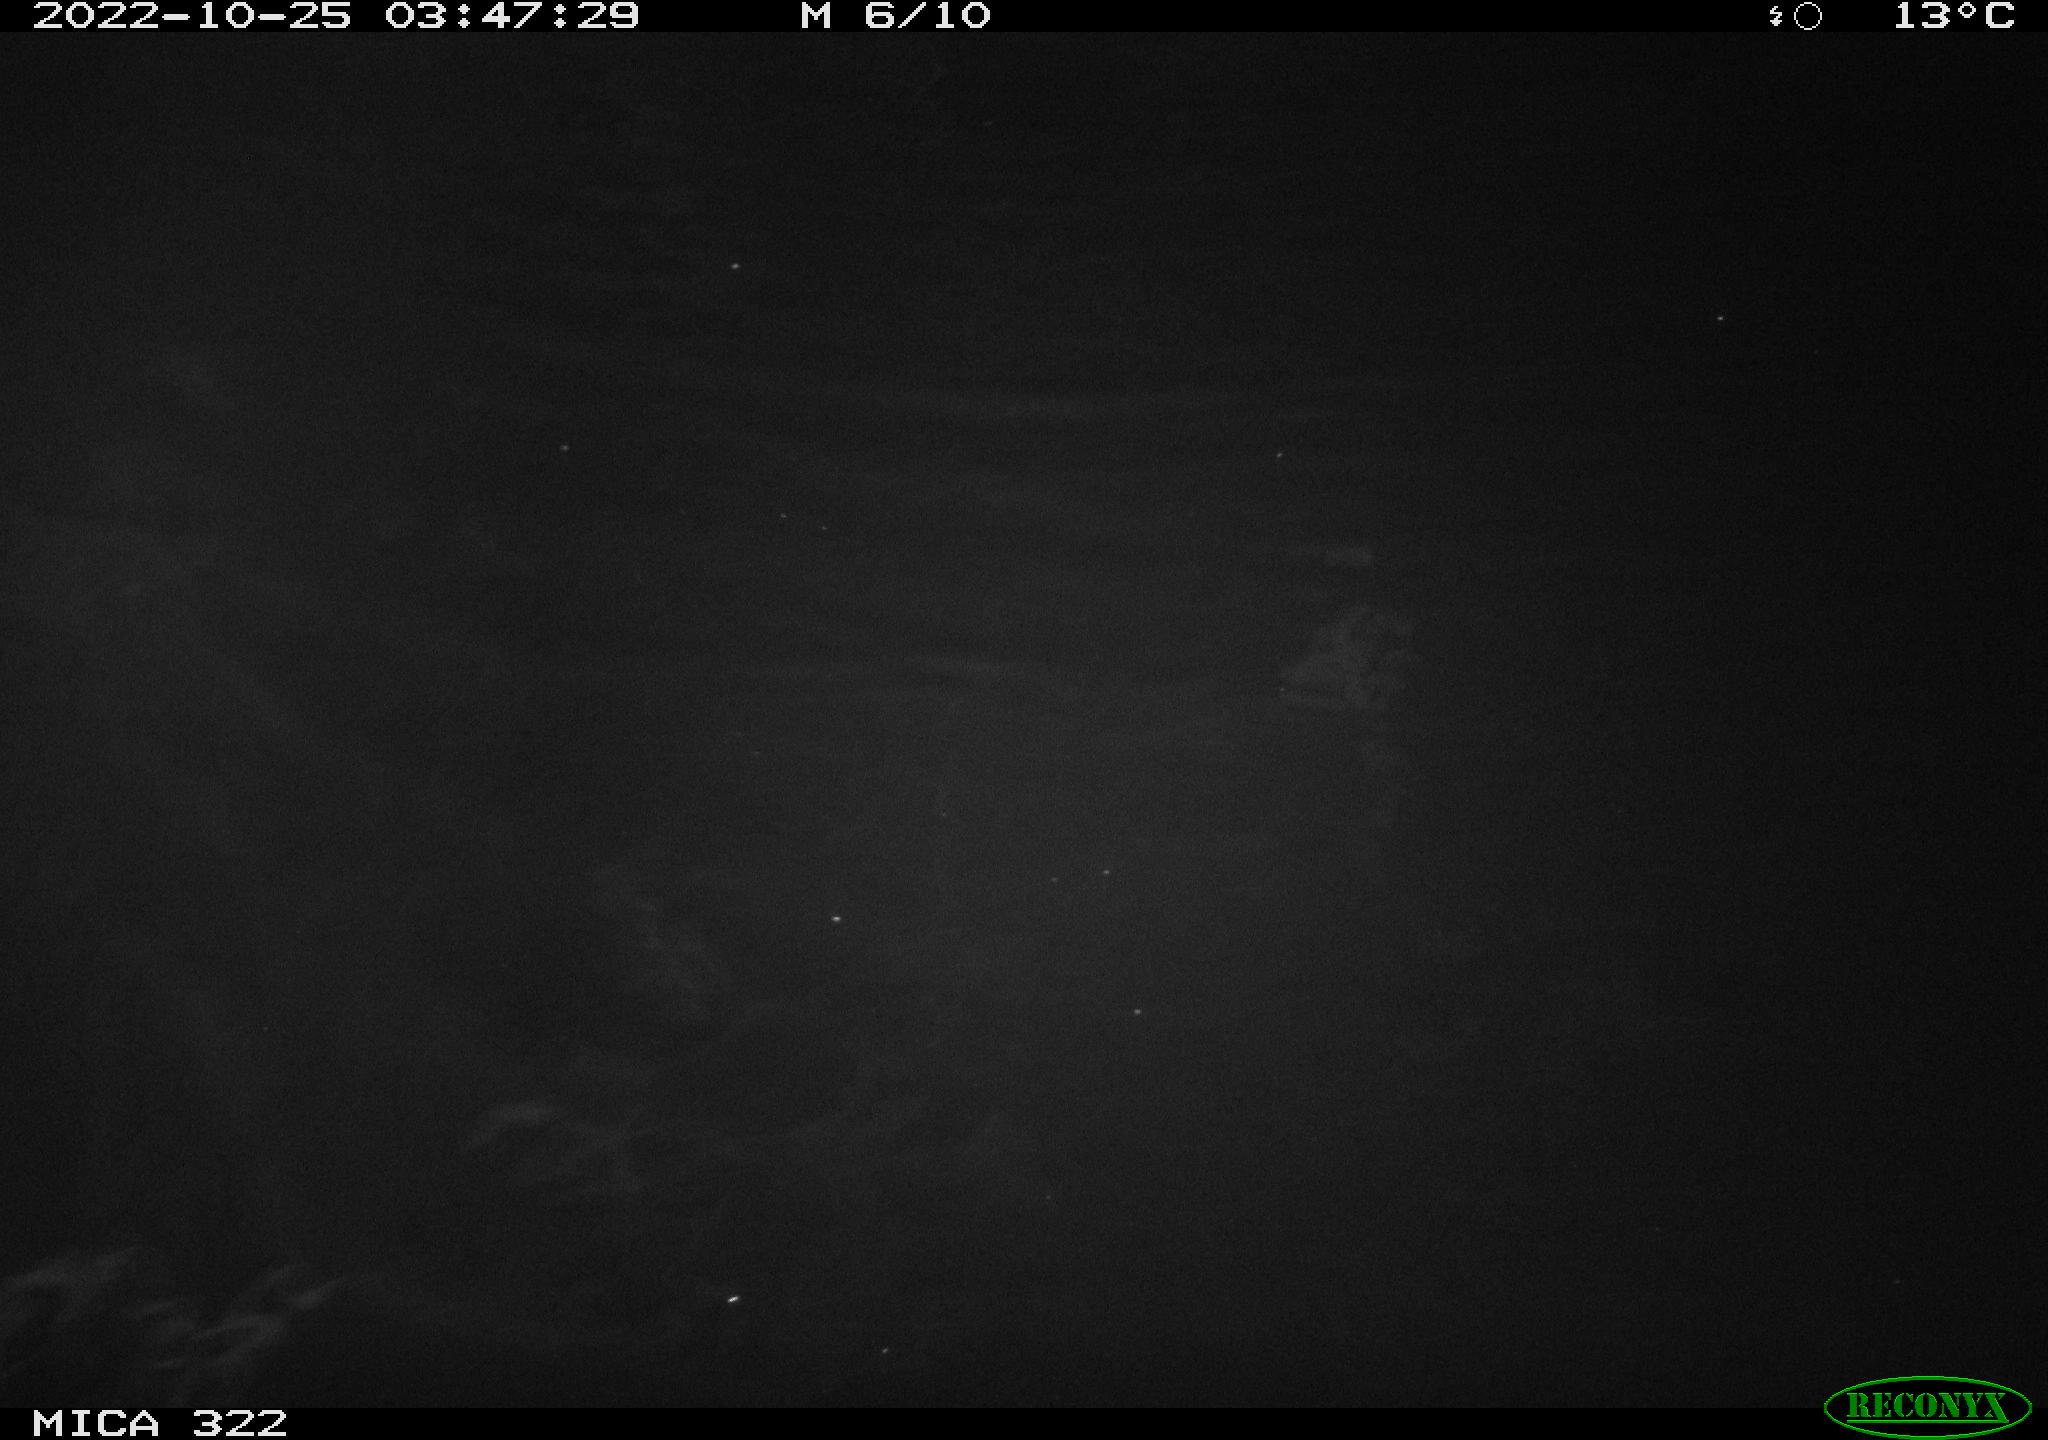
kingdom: Animalia
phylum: Chordata
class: Mammalia
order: Rodentia
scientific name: Rodentia
